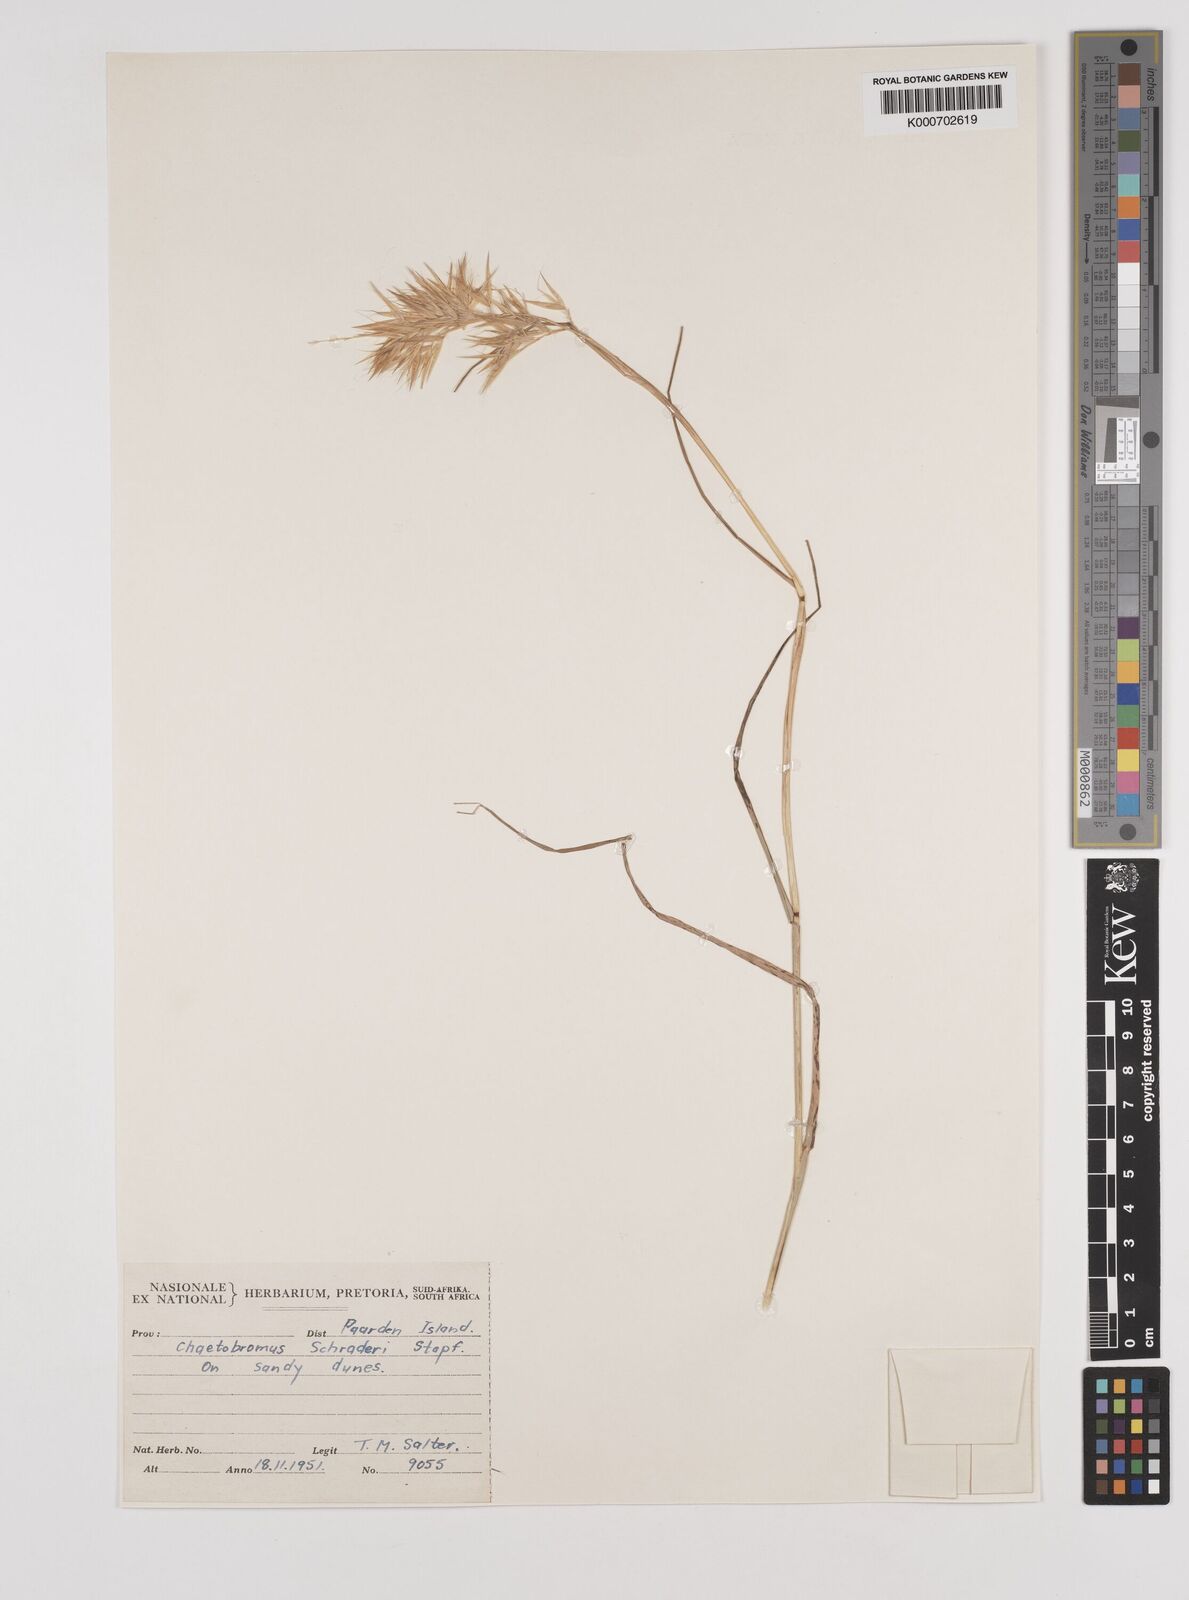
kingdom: Plantae
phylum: Tracheophyta
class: Liliopsida
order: Poales
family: Poaceae
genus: Chaetobromus
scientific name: Chaetobromus involucratus
